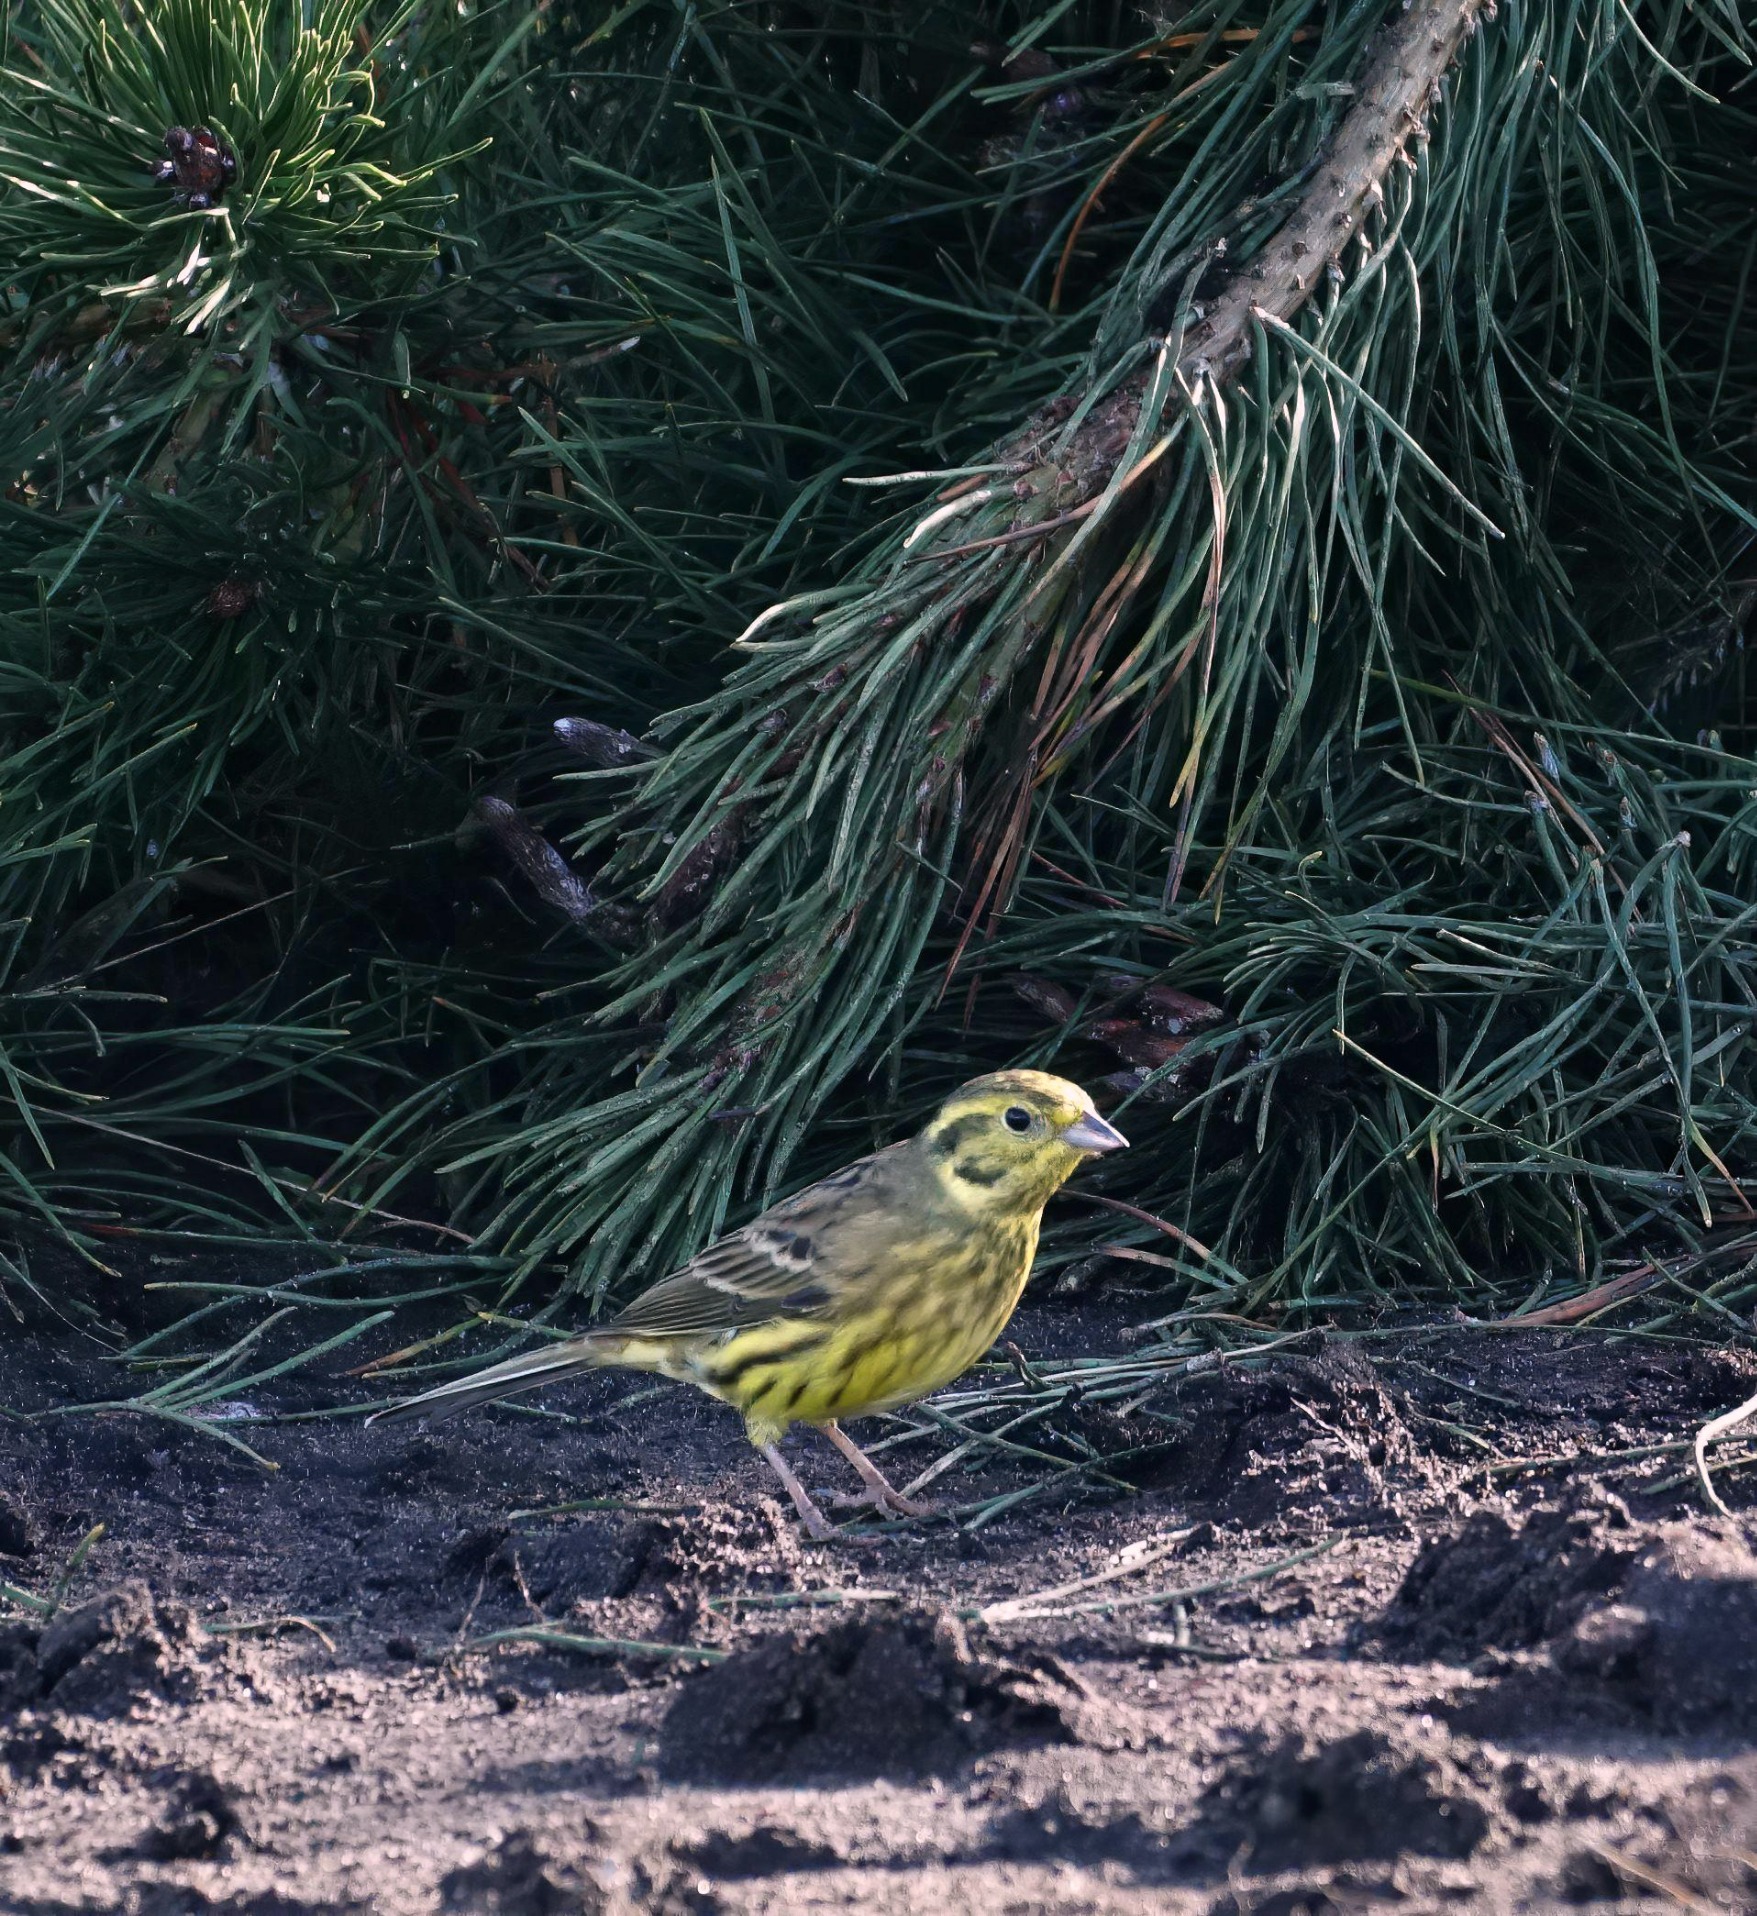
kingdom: Animalia
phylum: Chordata
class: Aves
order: Passeriformes
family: Emberizidae
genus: Emberiza
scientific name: Emberiza citrinella
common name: Gulspurv
